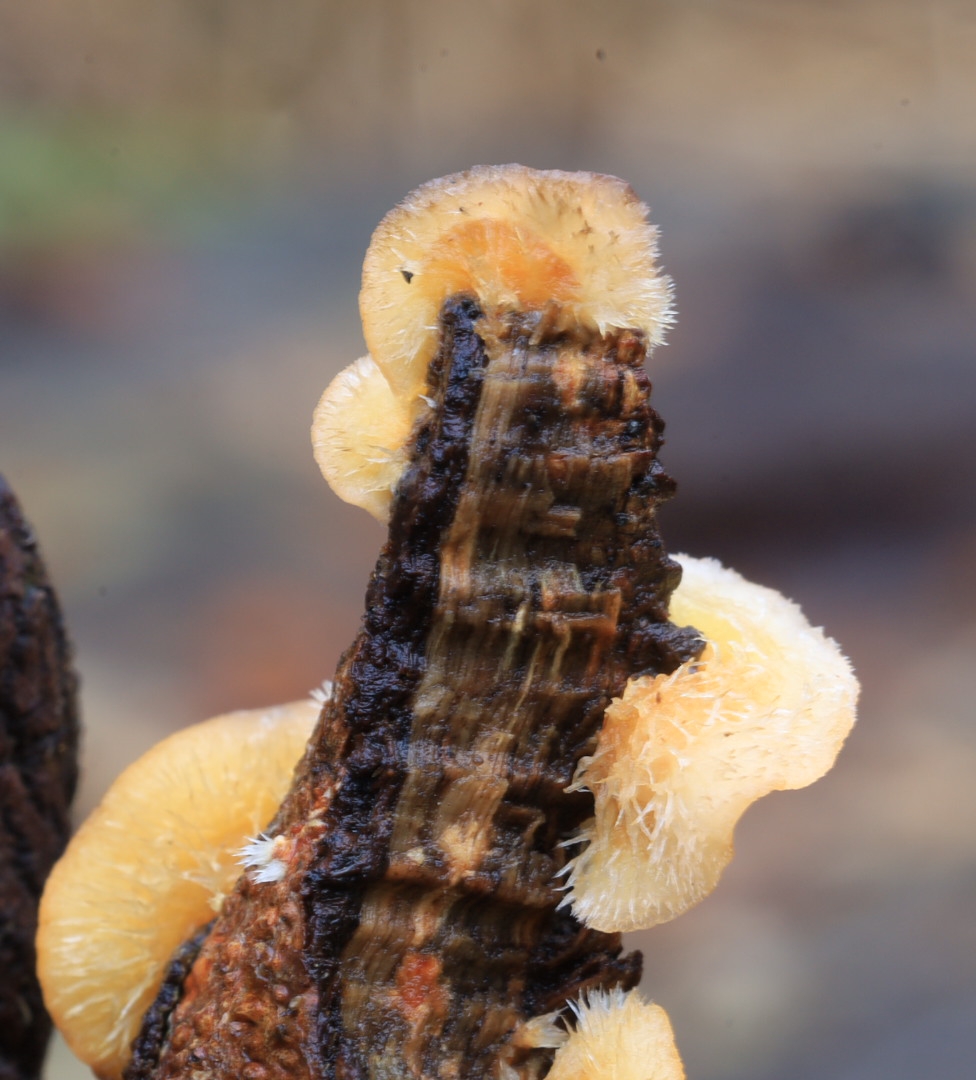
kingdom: Fungi
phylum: Basidiomycota
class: Agaricomycetes
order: Russulales
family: Stereaceae
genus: Stereum
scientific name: Stereum hirsutum
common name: håret lædersvamp
